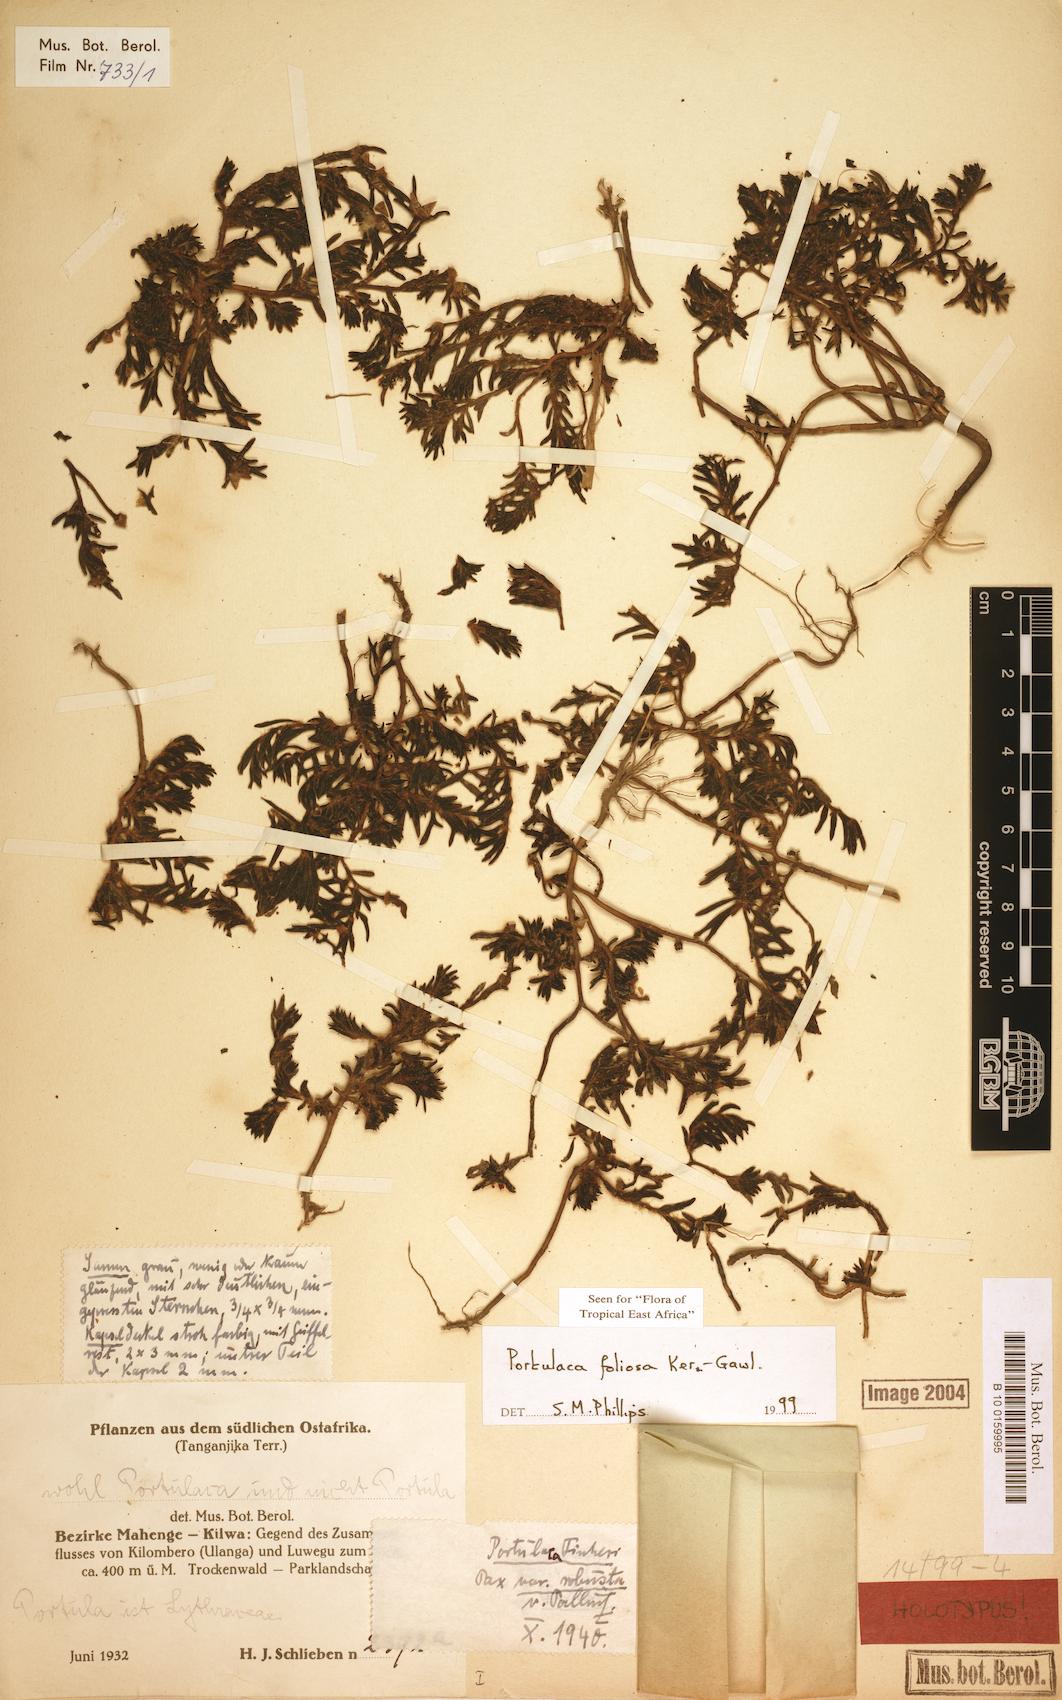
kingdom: Plantae
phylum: Tracheophyta
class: Magnoliopsida
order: Caryophyllales
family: Portulacaceae
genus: Portulaca
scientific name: Portulaca foliosa
